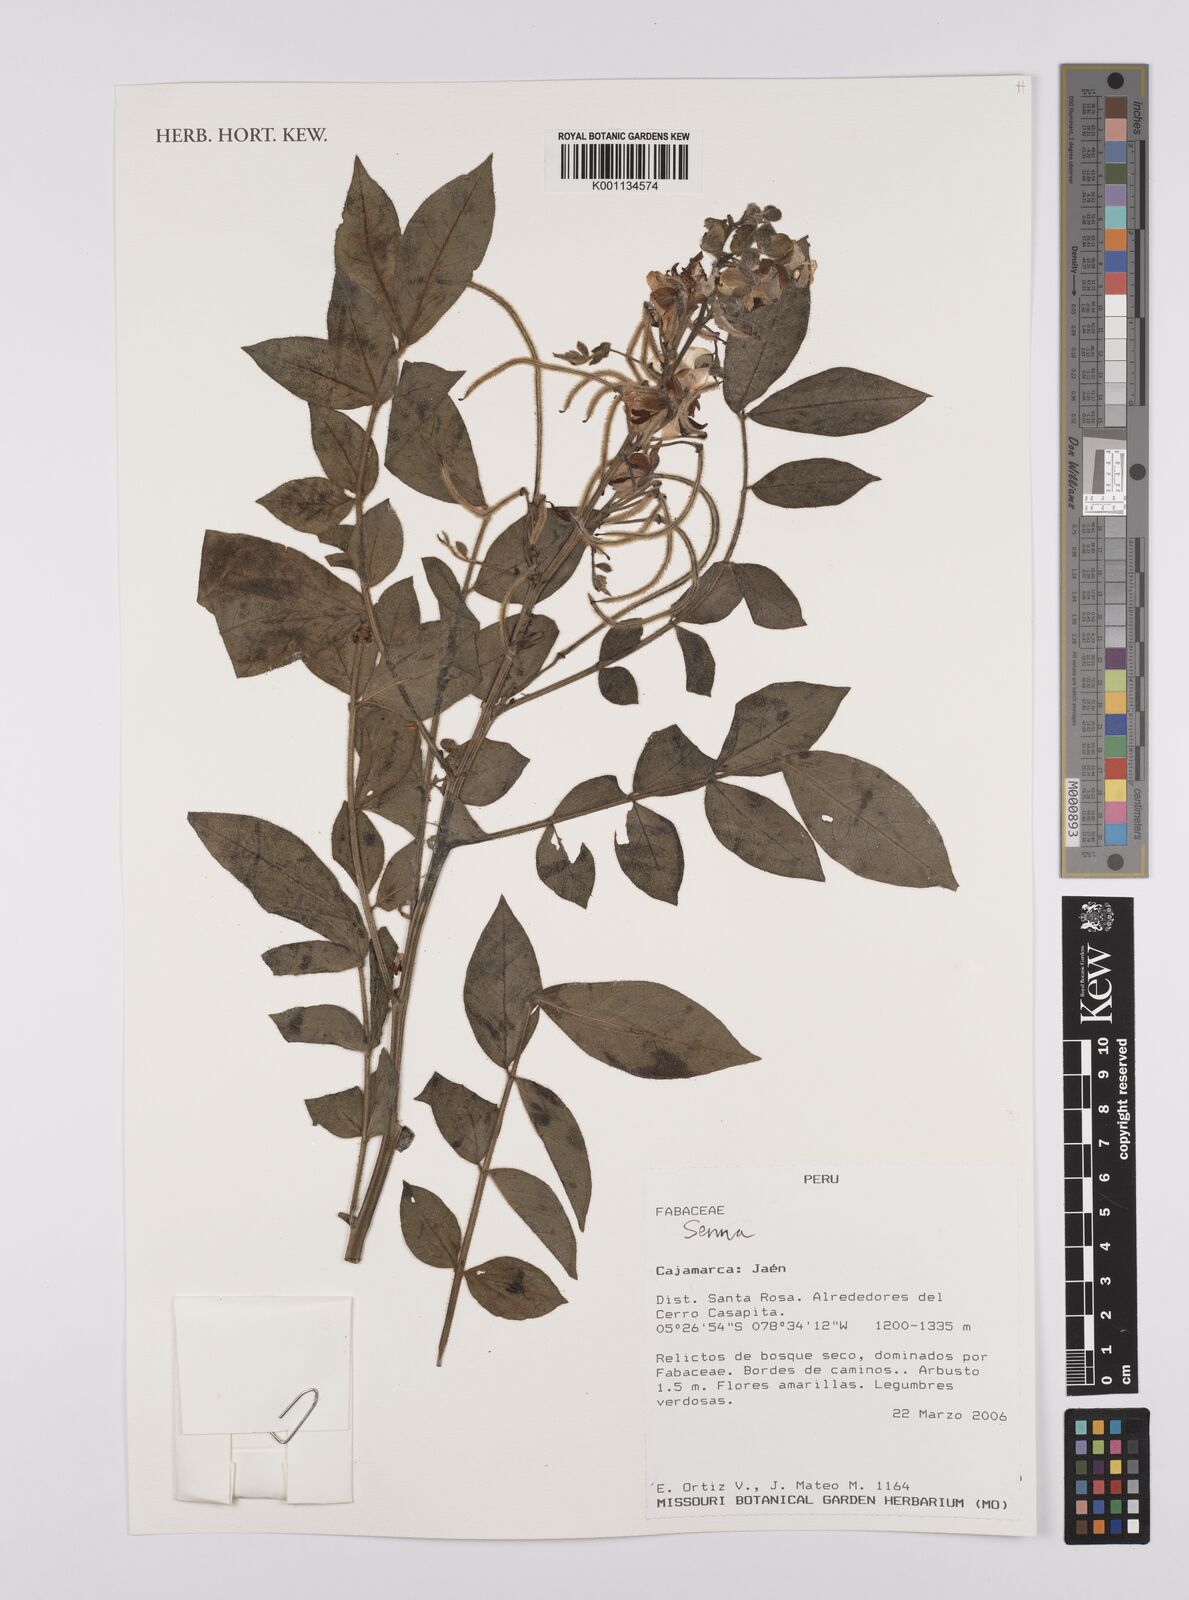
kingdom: Plantae
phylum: Tracheophyta
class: Magnoliopsida
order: Fabales
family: Fabaceae
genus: Senna
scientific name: Senna
